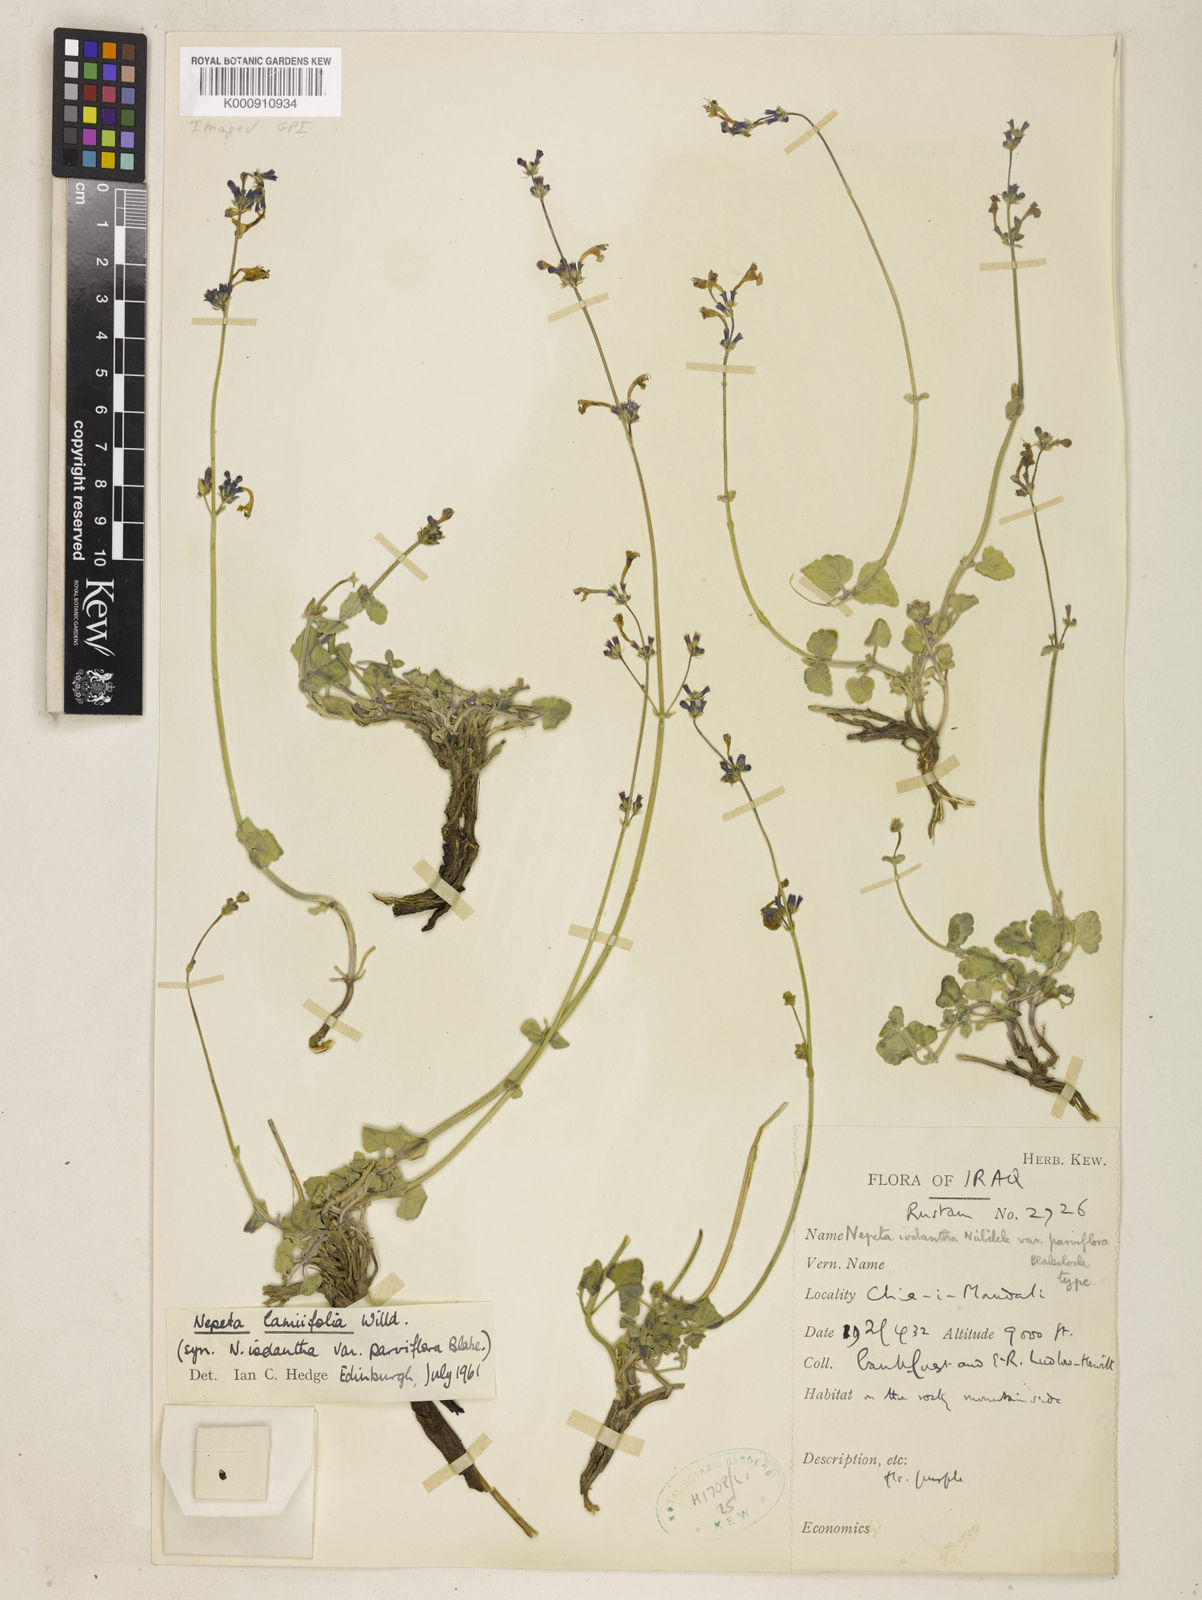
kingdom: Plantae
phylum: Tracheophyta
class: Magnoliopsida
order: Lamiales
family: Lamiaceae
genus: Nepeta
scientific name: Nepeta lamiifolia
